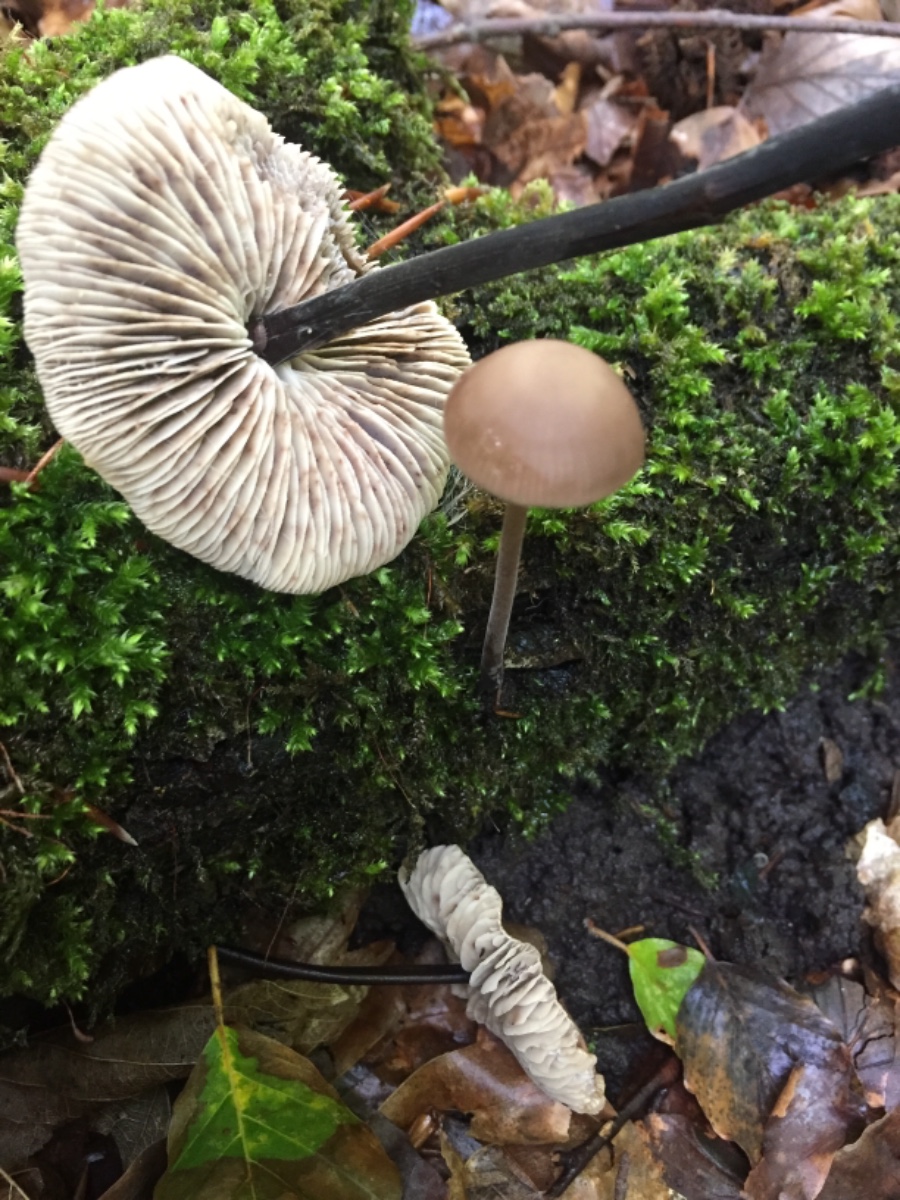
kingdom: Fungi
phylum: Basidiomycota
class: Agaricomycetes
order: Agaricales
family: Omphalotaceae
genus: Mycetinis
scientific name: Mycetinis alliaceus
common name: stor løghat
